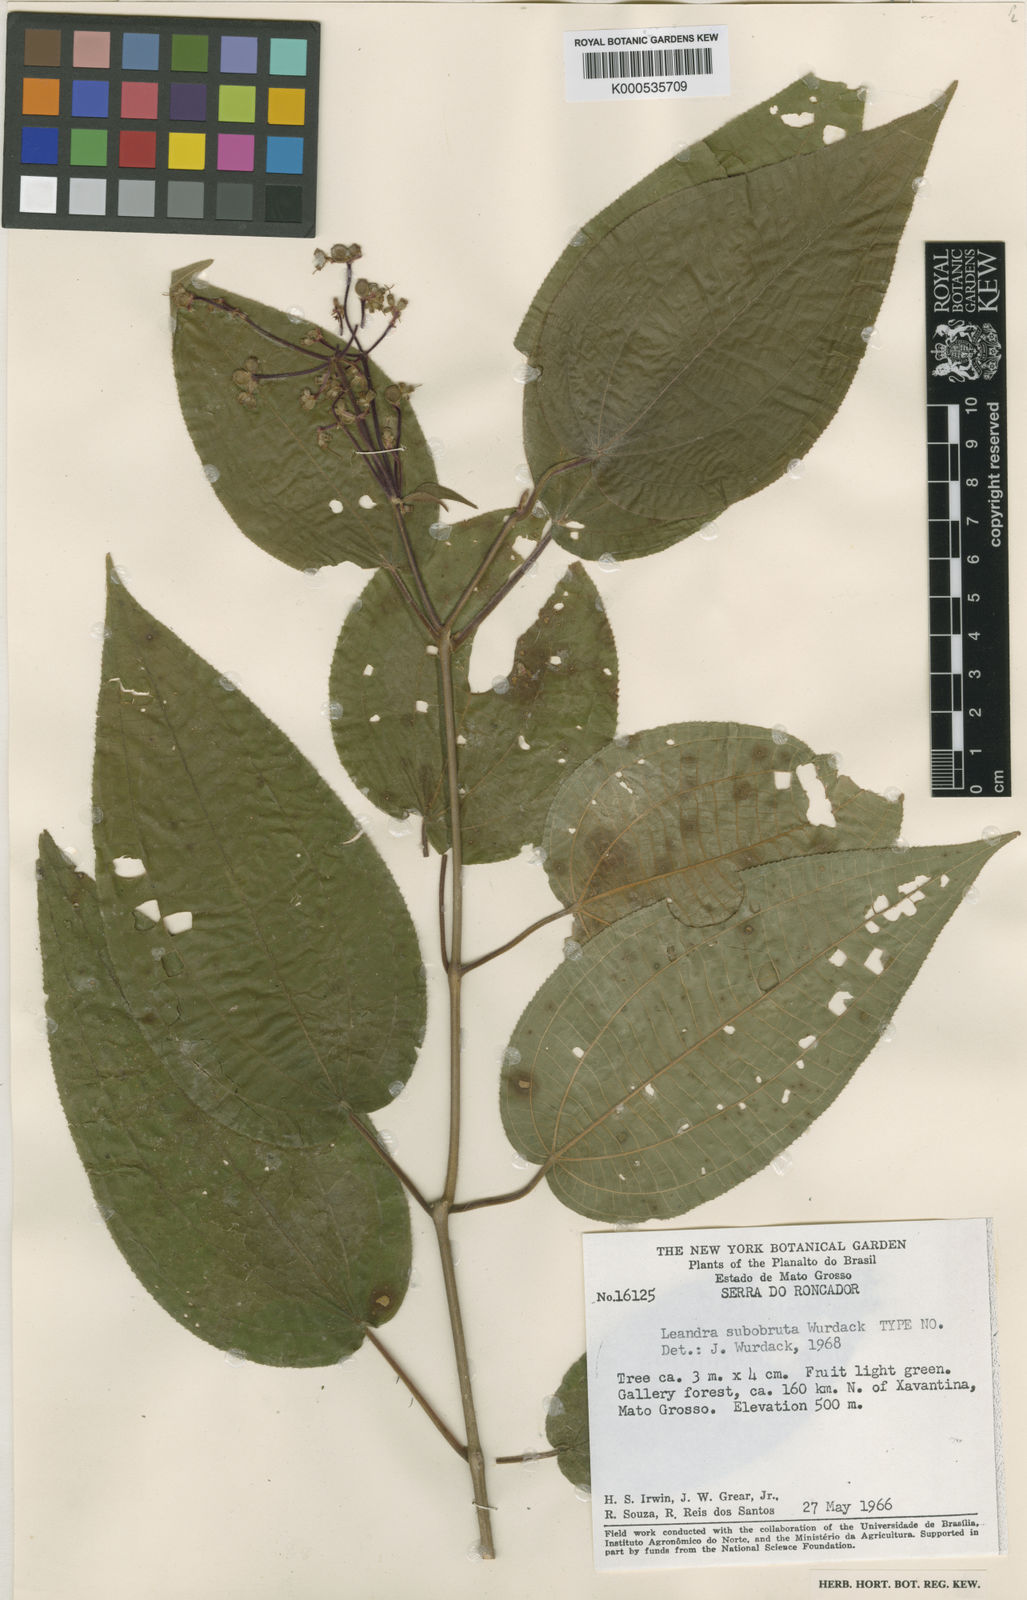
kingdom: Plantae
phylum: Tracheophyta
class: Magnoliopsida
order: Myrtales
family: Melastomataceae
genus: Miconia
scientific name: Miconia subobruta
